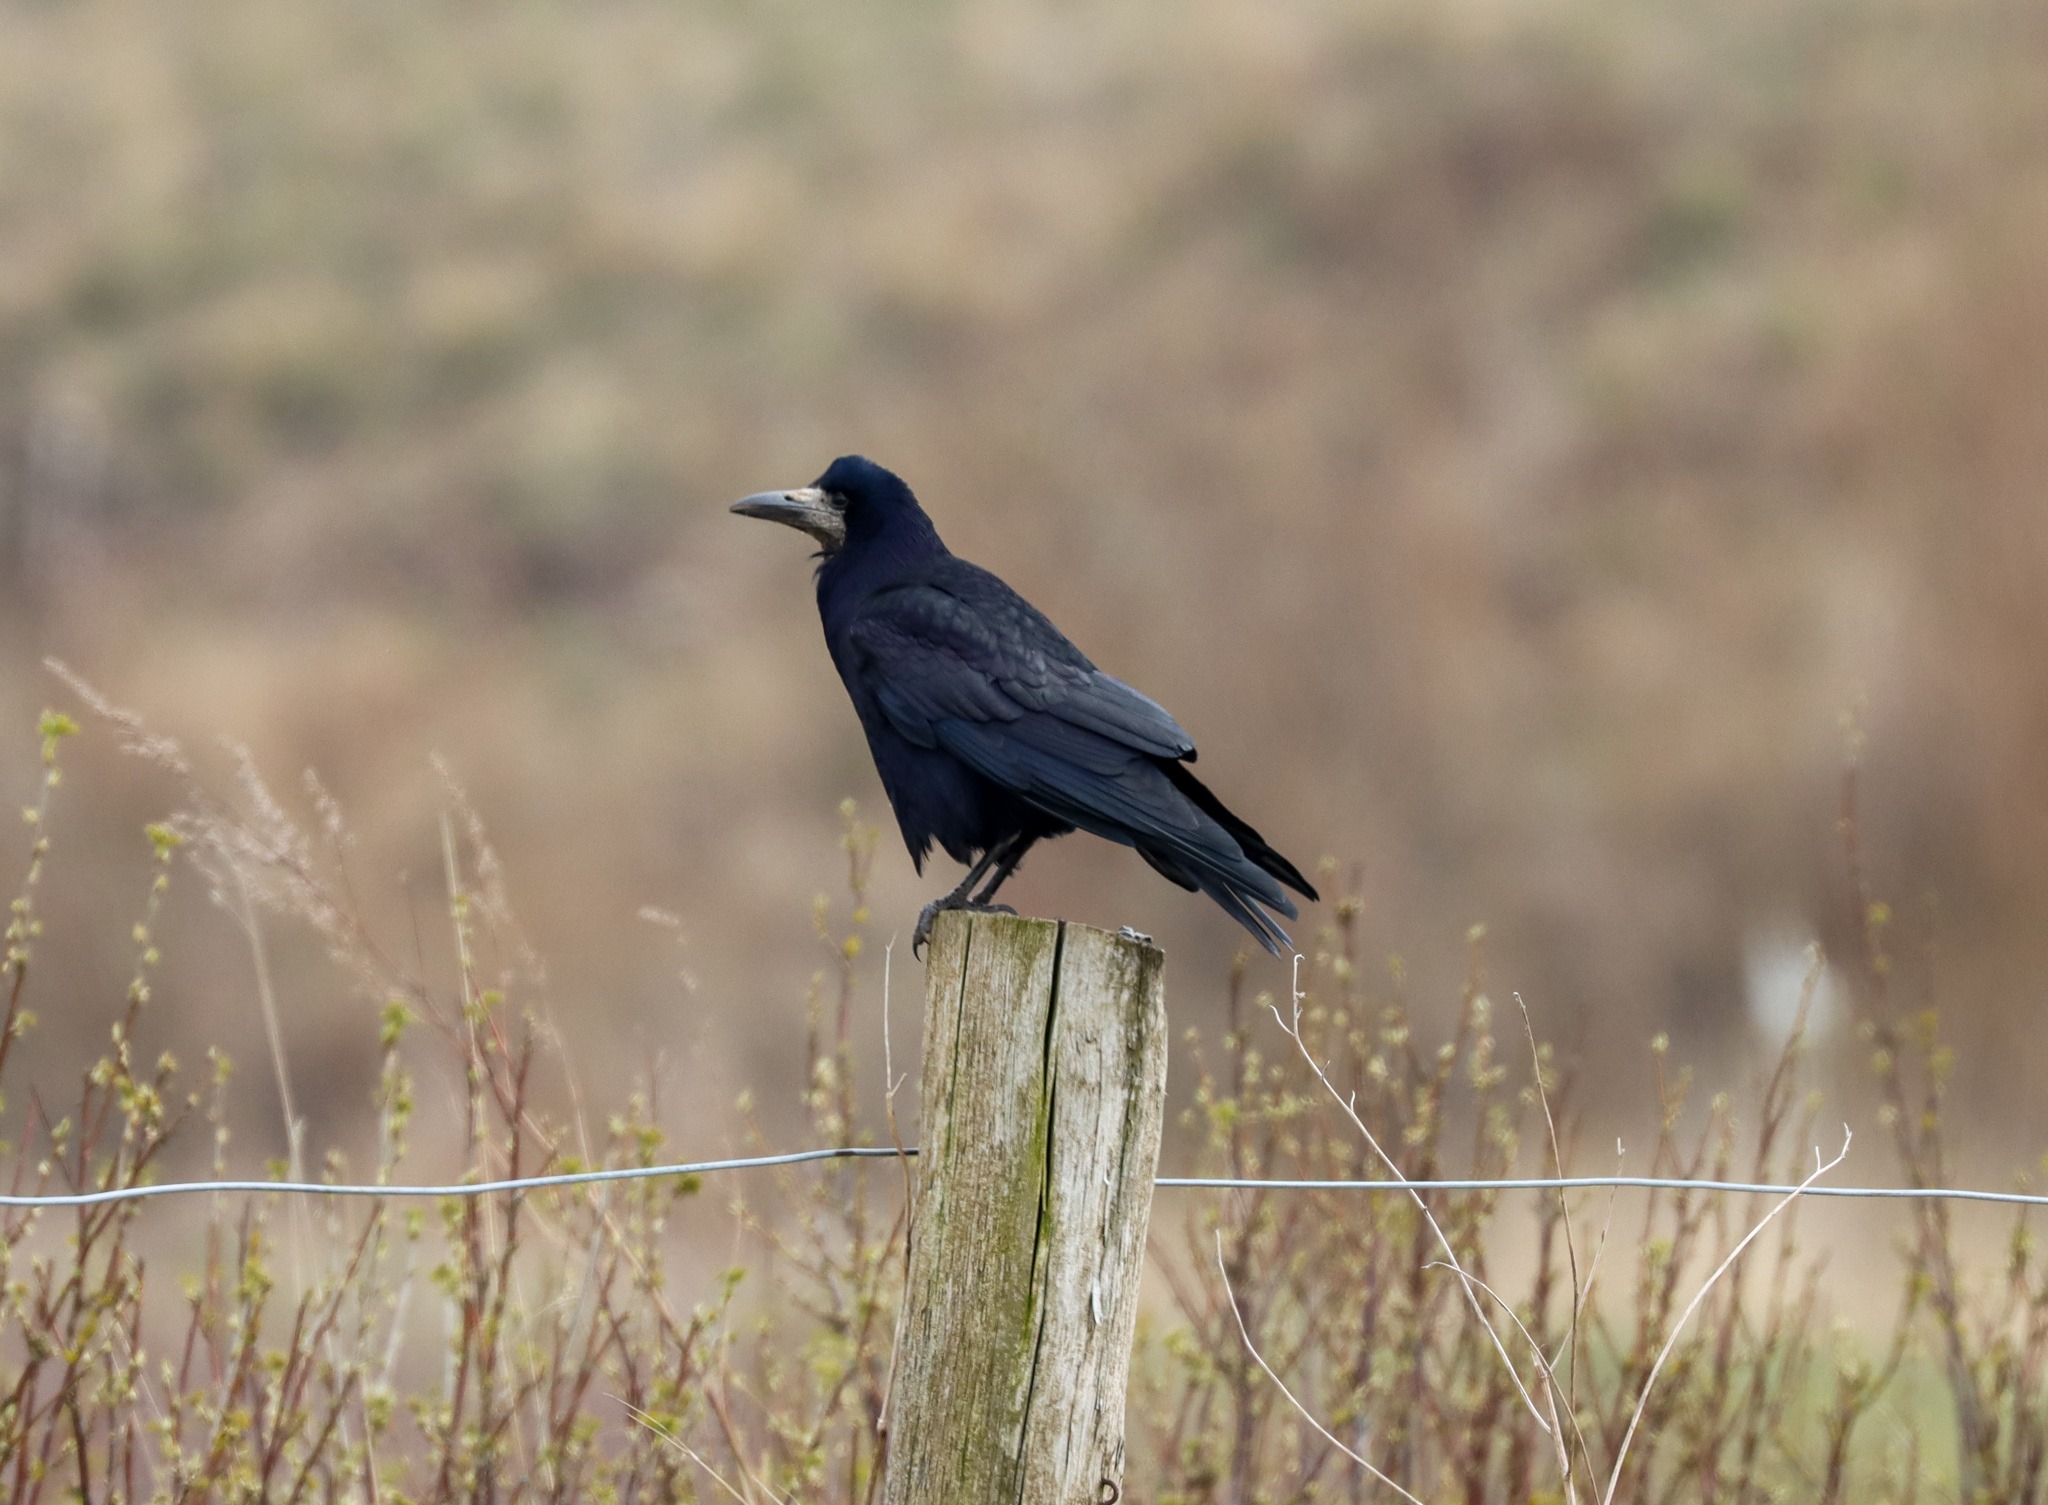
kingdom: Animalia
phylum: Chordata
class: Aves
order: Passeriformes
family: Corvidae
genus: Corvus
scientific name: Corvus frugilegus
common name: Råge
